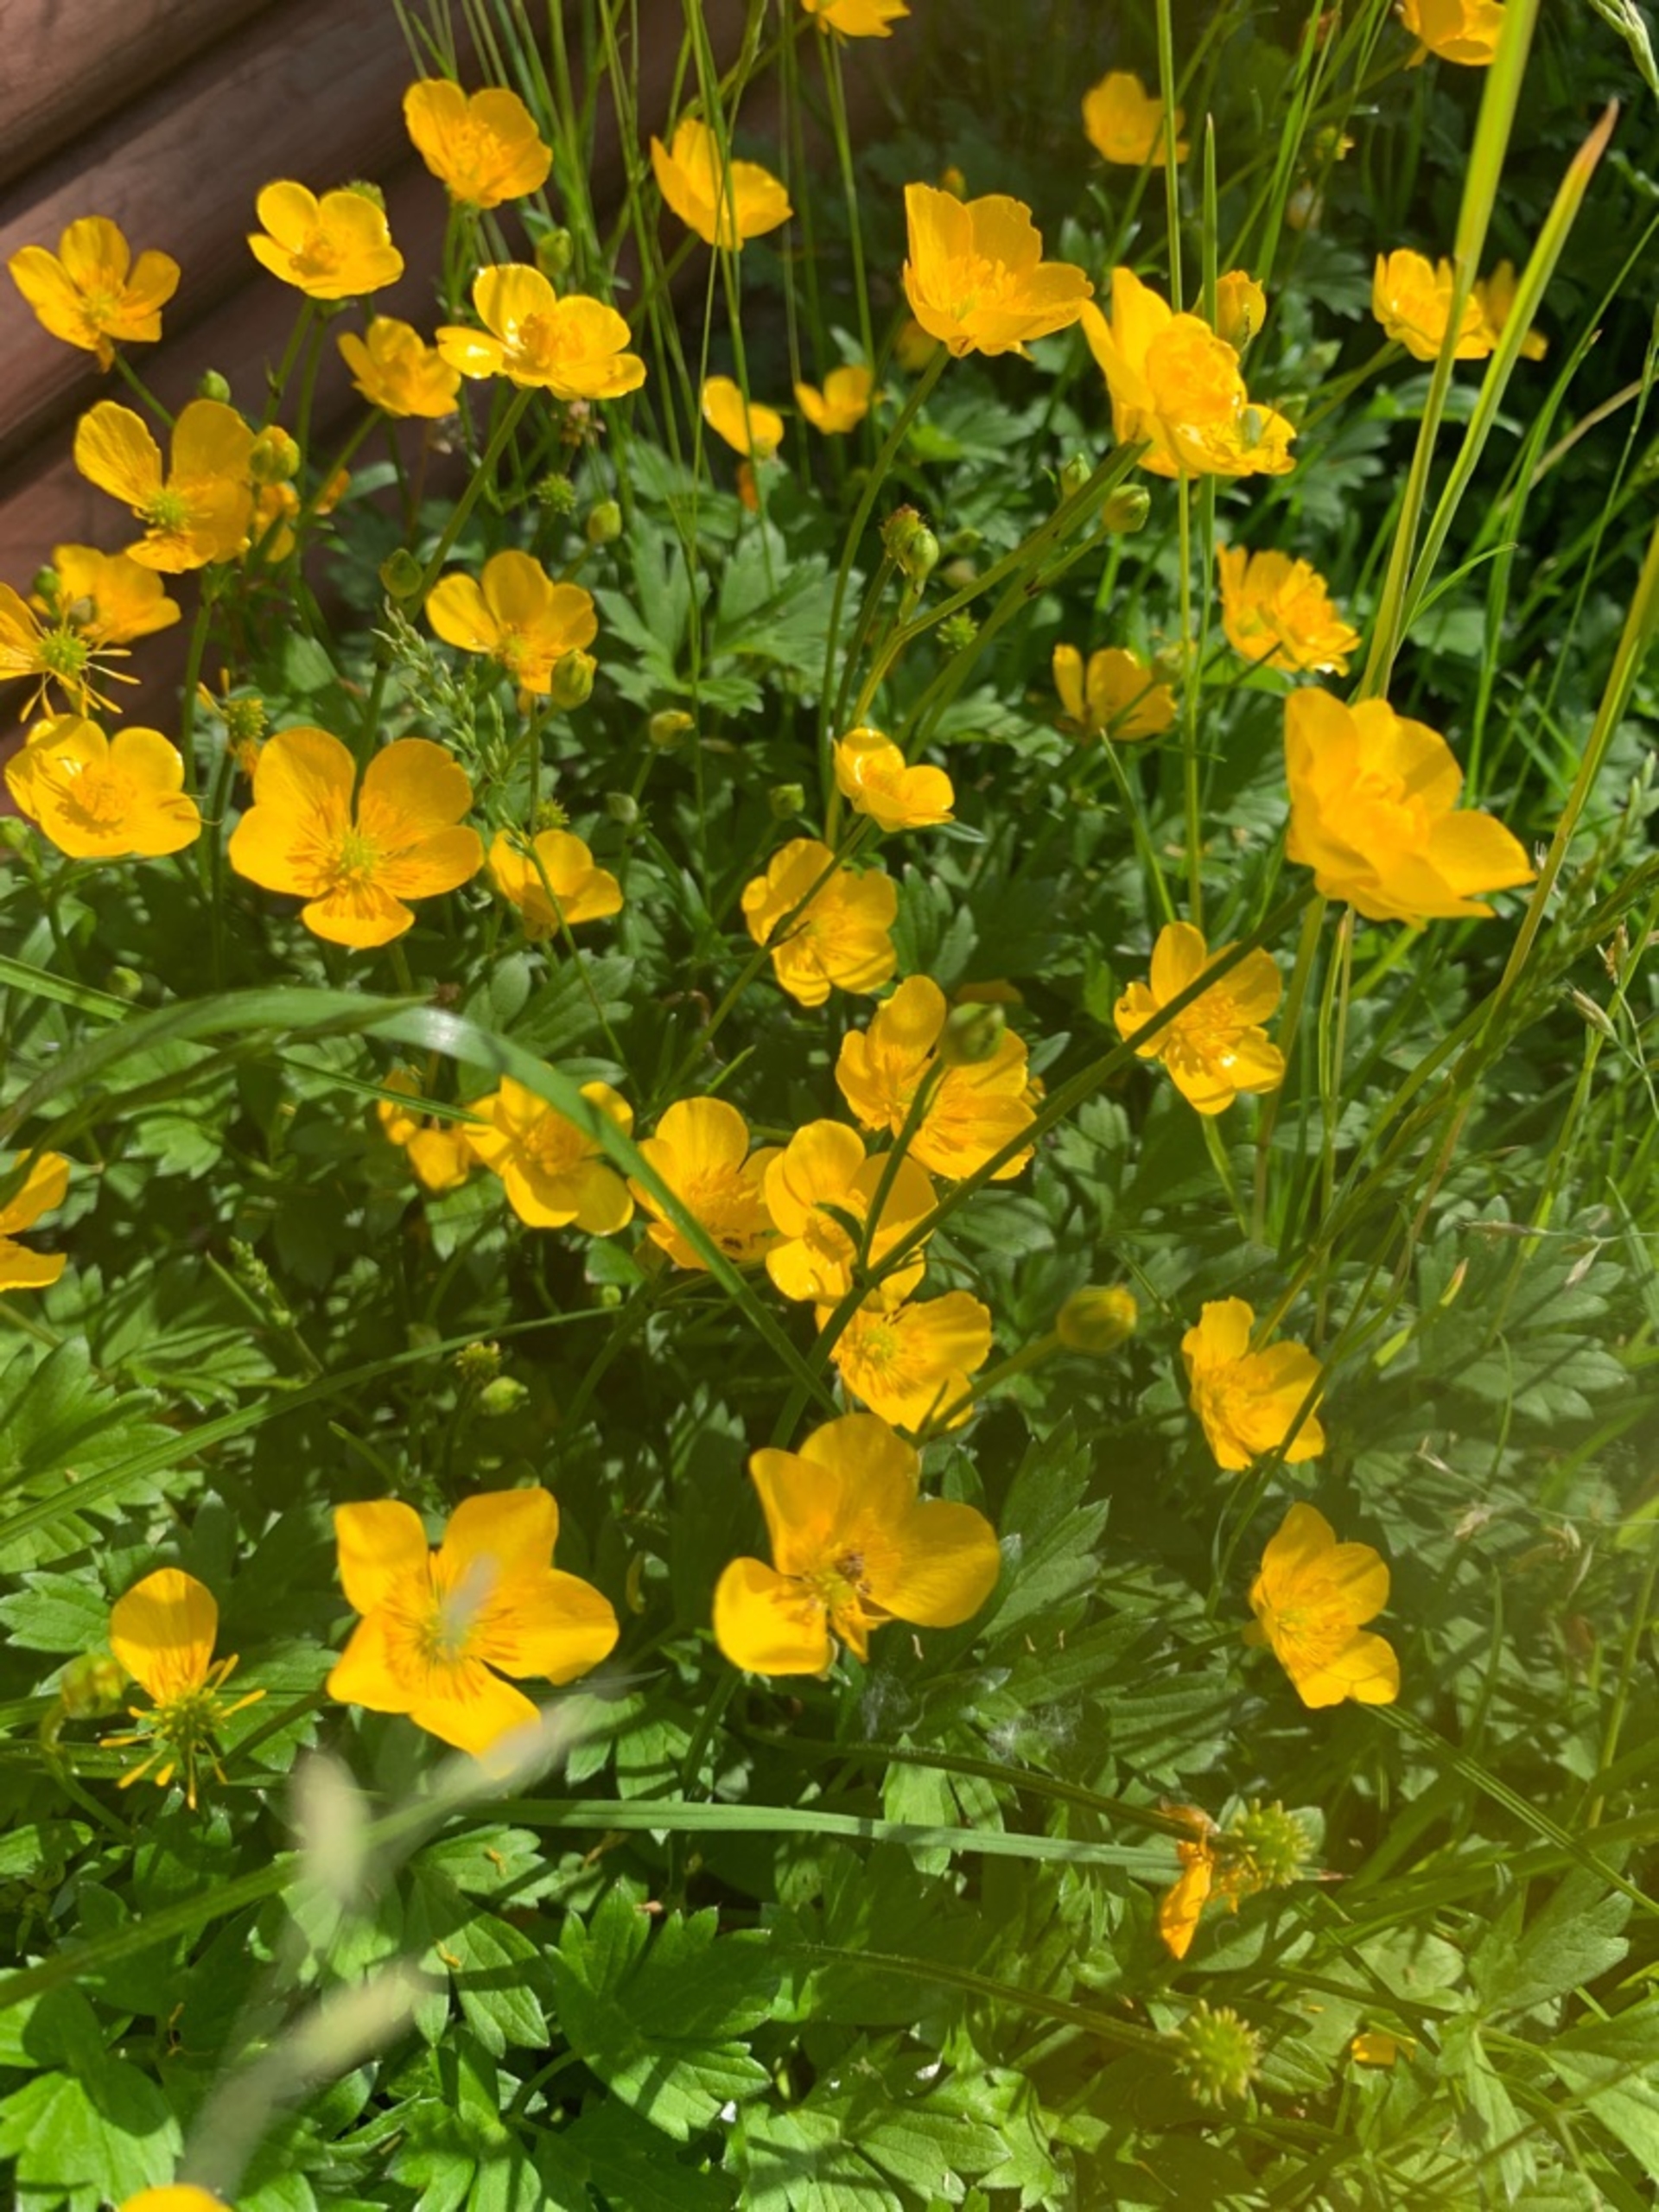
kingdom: Plantae
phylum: Tracheophyta
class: Magnoliopsida
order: Ranunculales
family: Ranunculaceae
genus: Ranunculus
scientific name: Ranunculus repens
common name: Lav ranunkel
